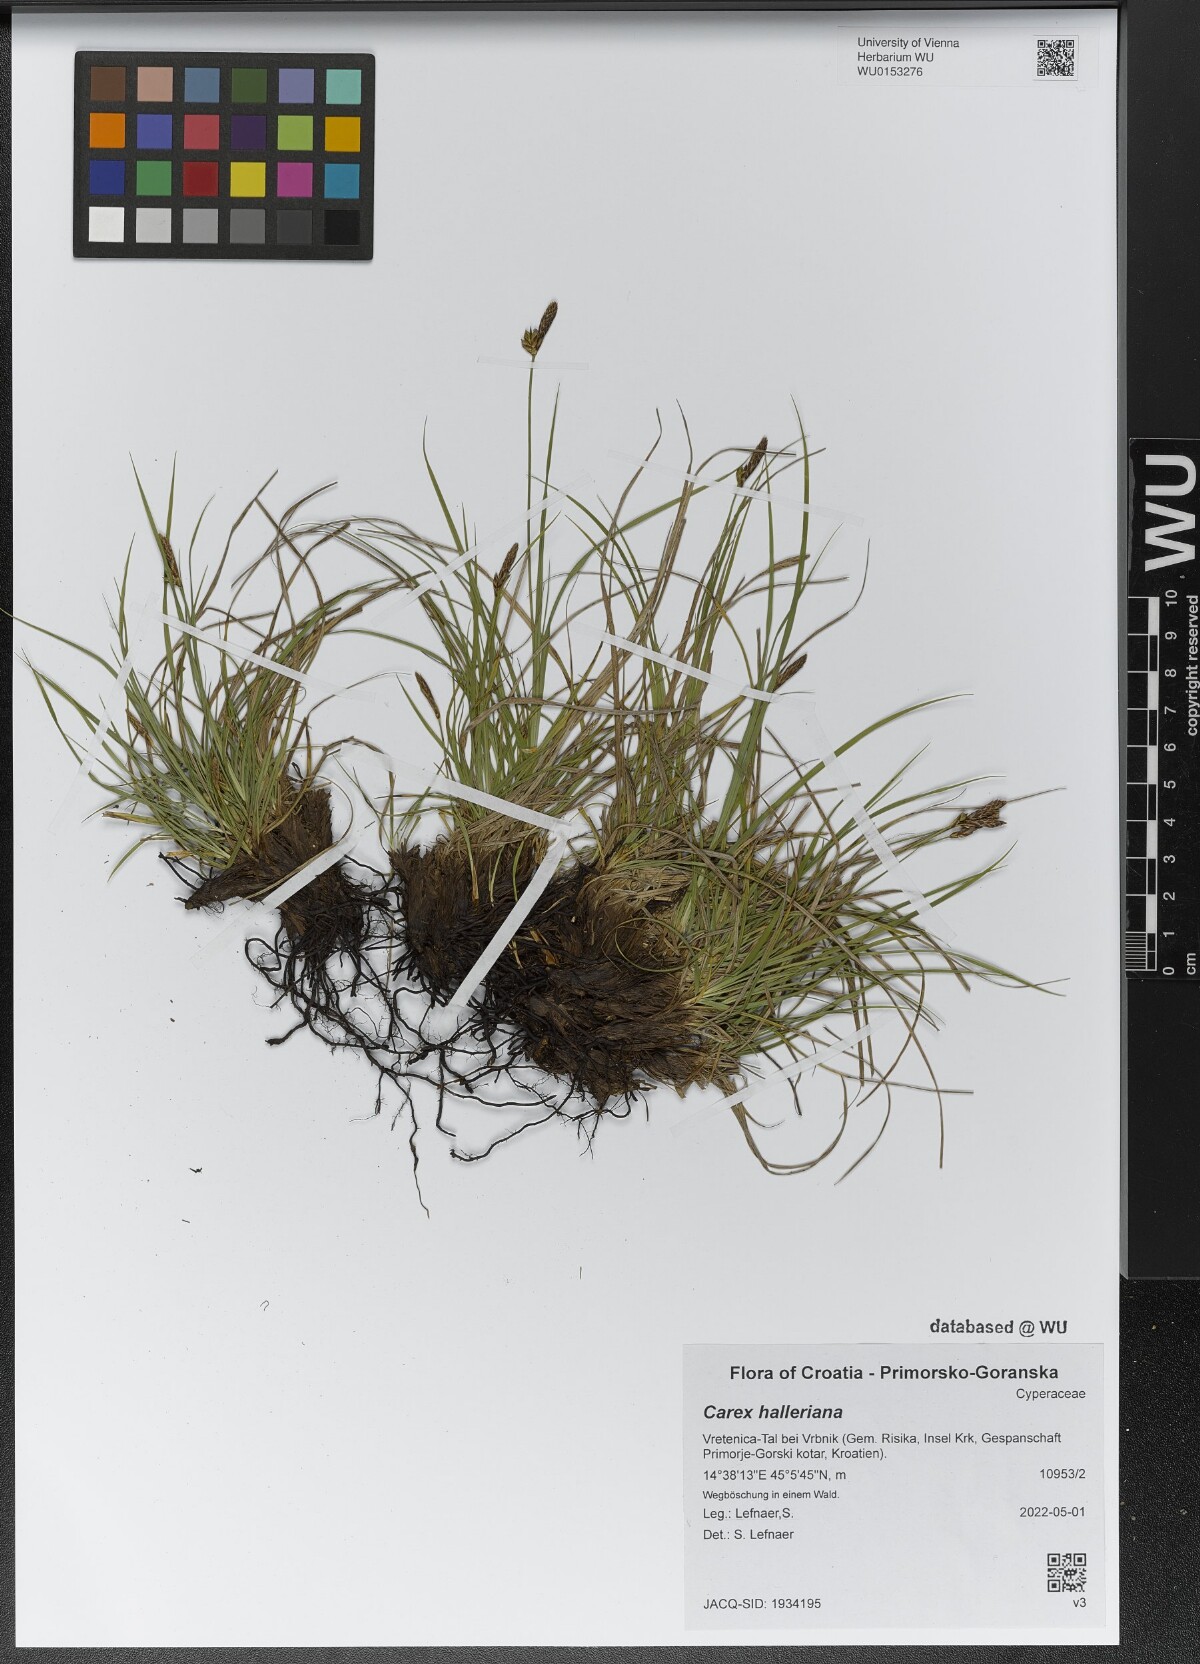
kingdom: Plantae
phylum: Tracheophyta
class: Liliopsida
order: Poales
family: Cyperaceae
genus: Carex
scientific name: Carex halleriana
